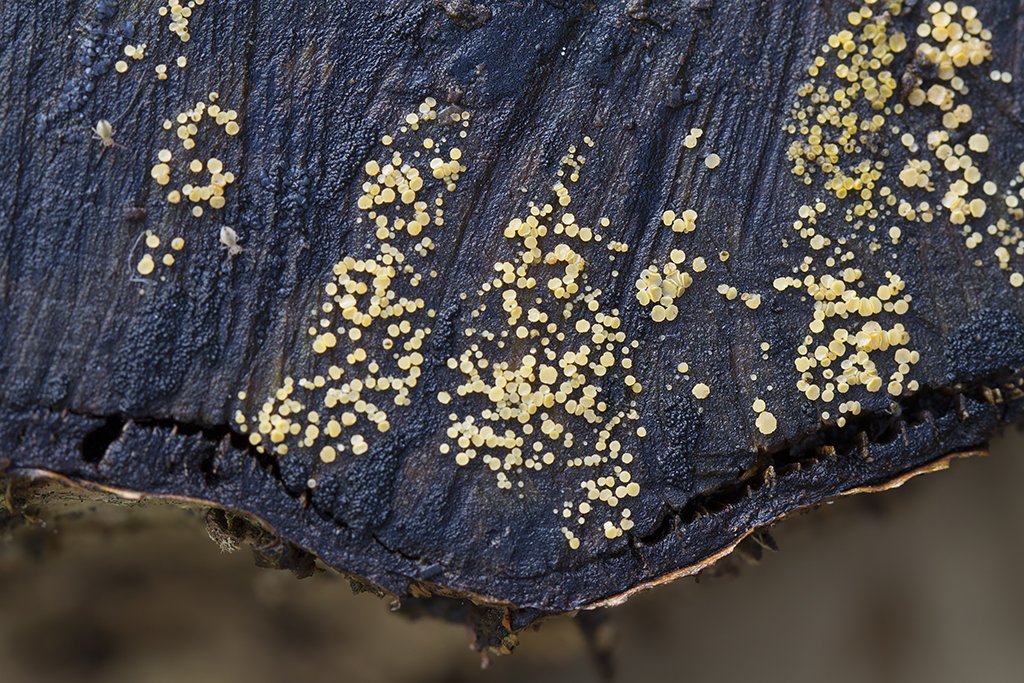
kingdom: Fungi
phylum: Ascomycota
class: Leotiomycetes
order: Helotiales
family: Helotiaceae
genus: Bispora
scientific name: Bispora pallescens
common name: måtte-snitskive
